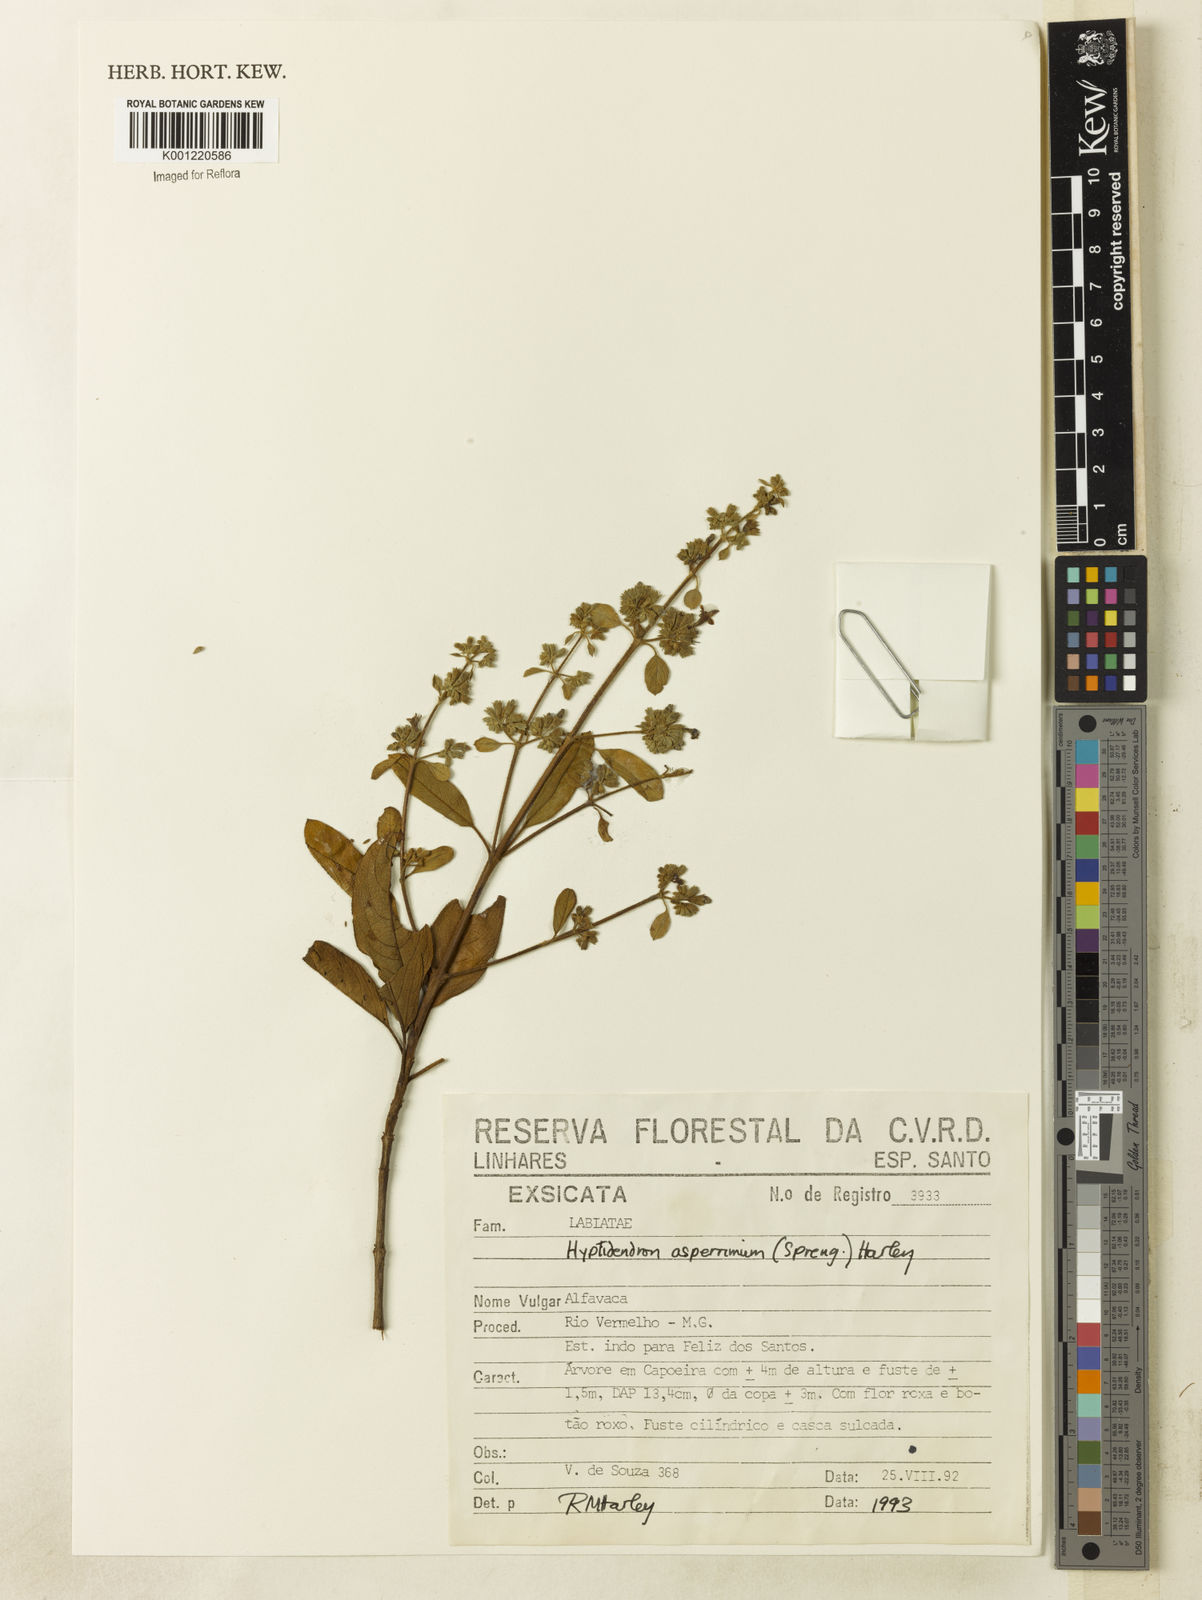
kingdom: Plantae
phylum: Tracheophyta
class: Magnoliopsida
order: Lamiales
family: Lamiaceae
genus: Hyptidendron
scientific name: Hyptidendron asperrimum
